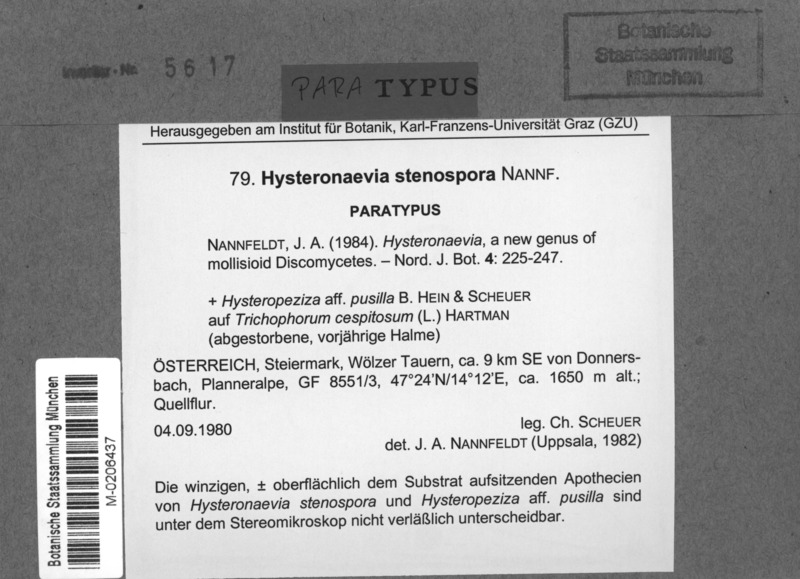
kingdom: Fungi
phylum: Ascomycota
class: Leotiomycetes
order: Helotiales
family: Dermateaceae
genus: Hysteronaevia
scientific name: Hysteronaevia stenospora
